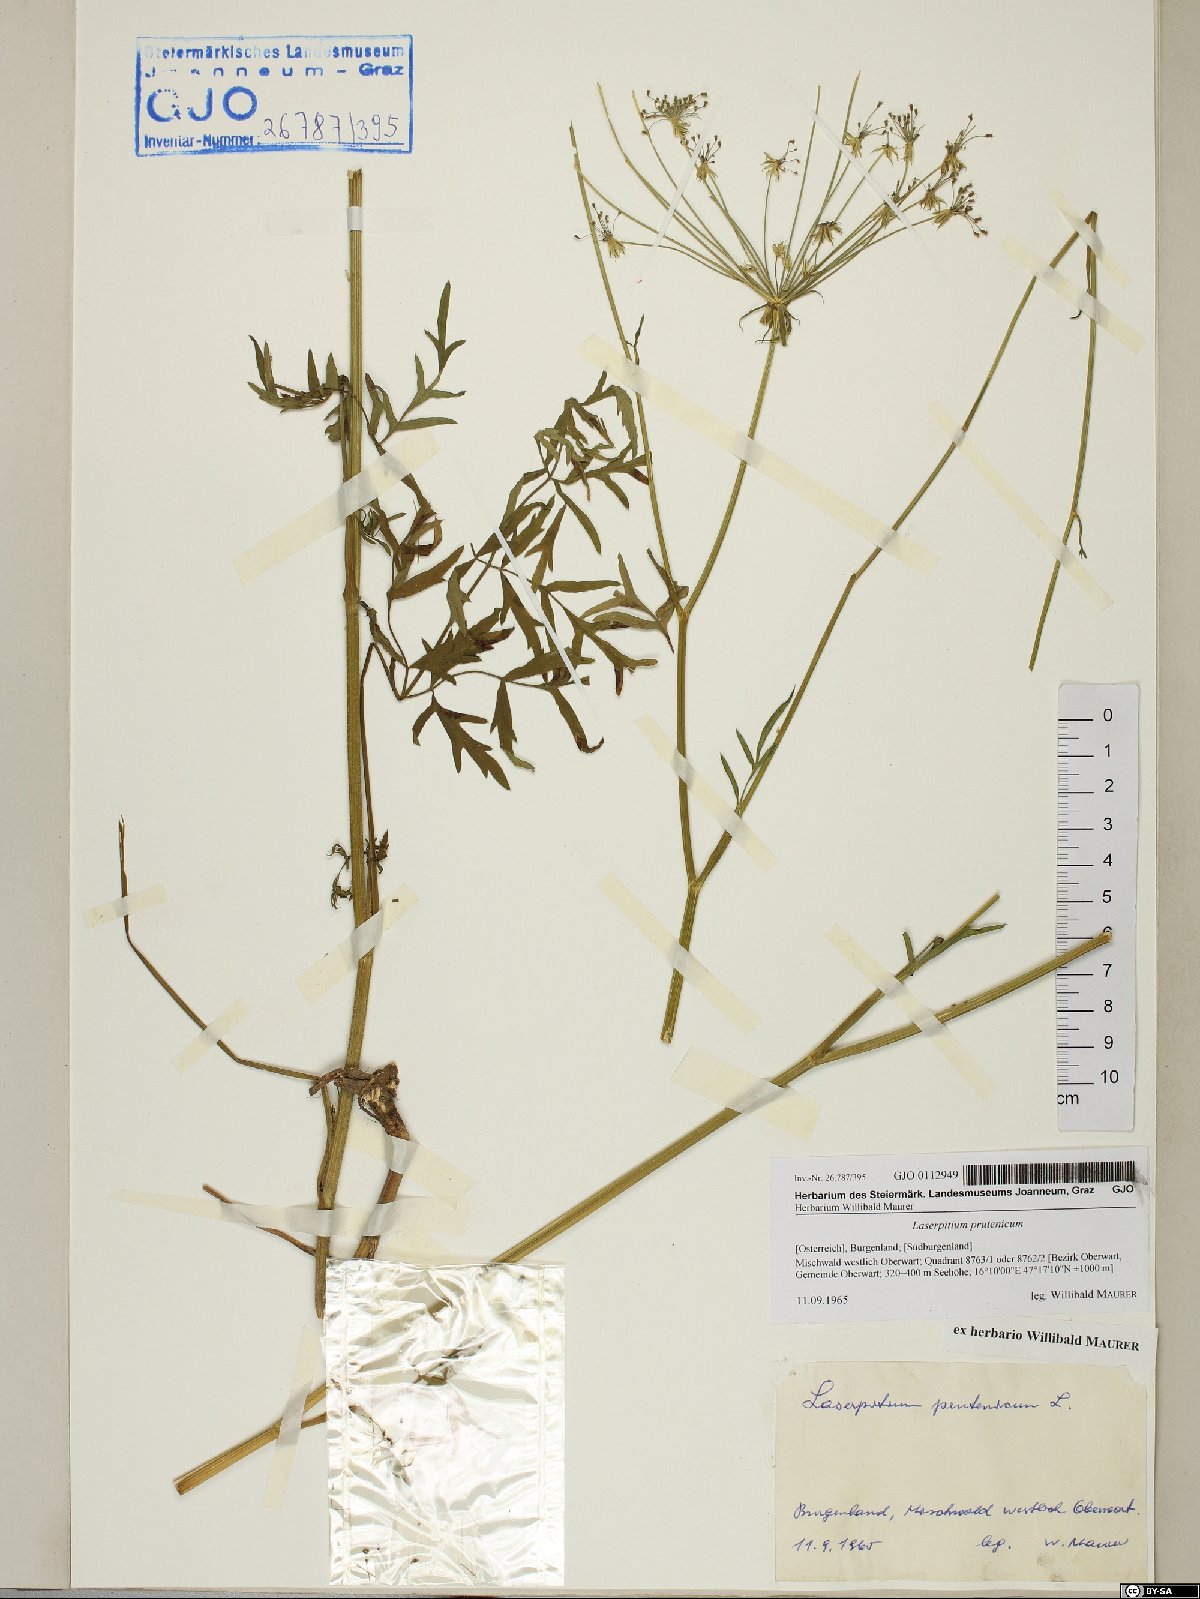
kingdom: Plantae
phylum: Tracheophyta
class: Magnoliopsida
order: Apiales
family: Apiaceae
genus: Silphiodaucus
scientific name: Silphiodaucus prutenicus
